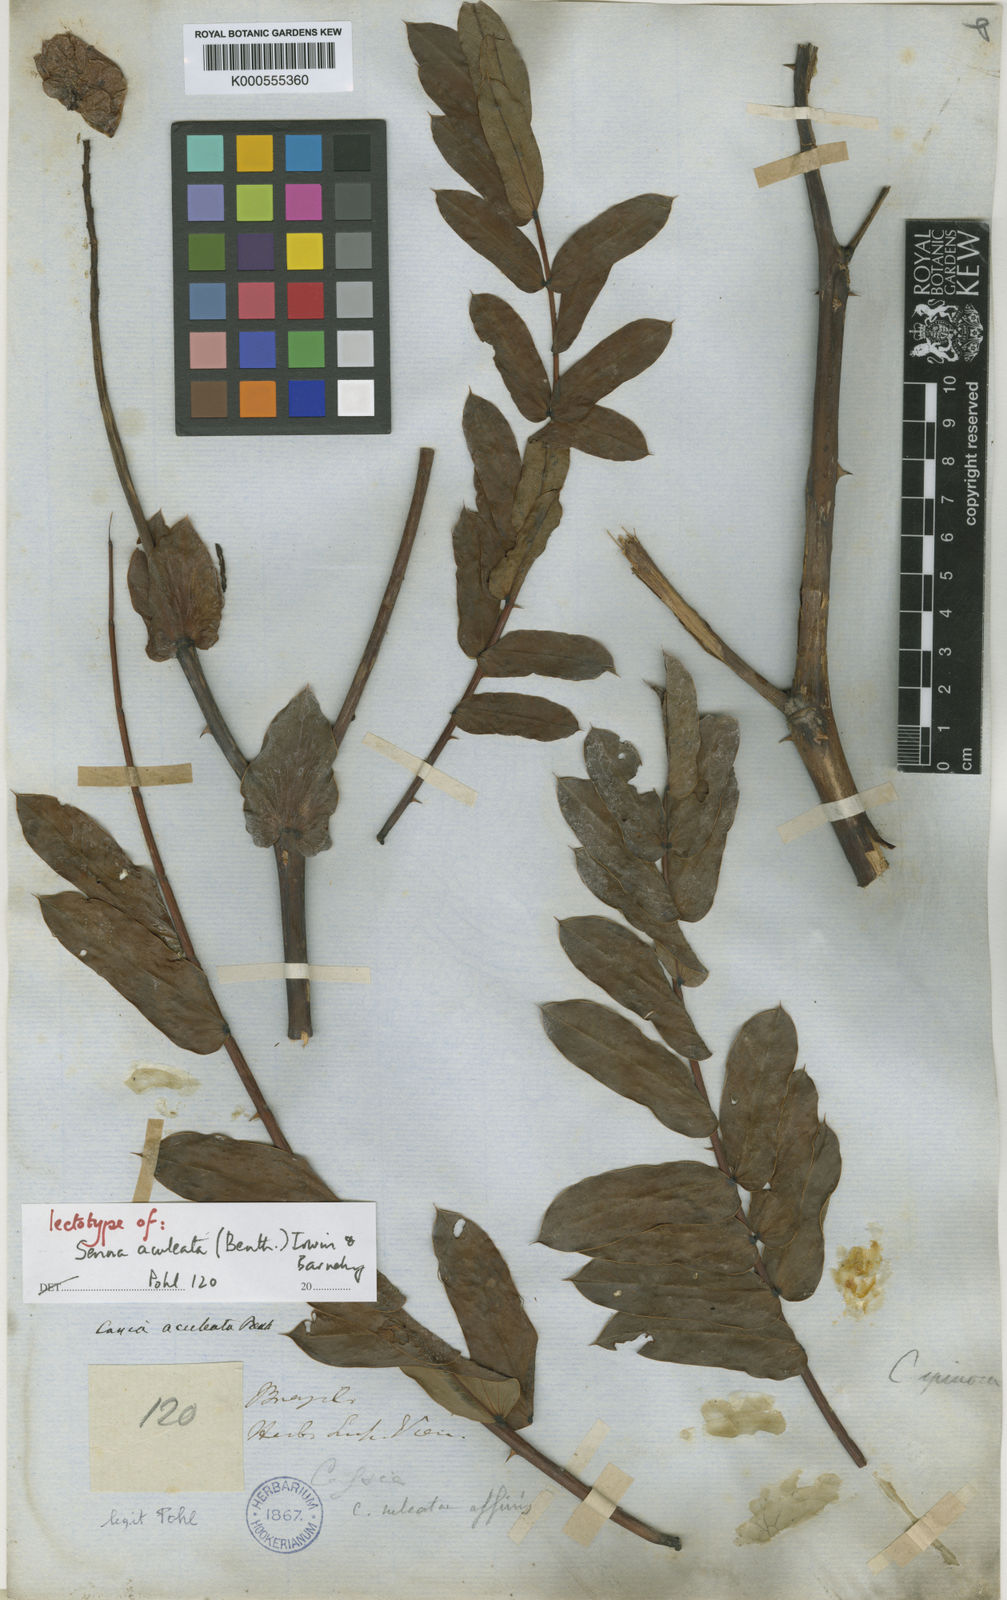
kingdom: Plantae
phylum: Tracheophyta
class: Magnoliopsida
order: Fabales
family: Fabaceae
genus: Senna
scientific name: Senna
